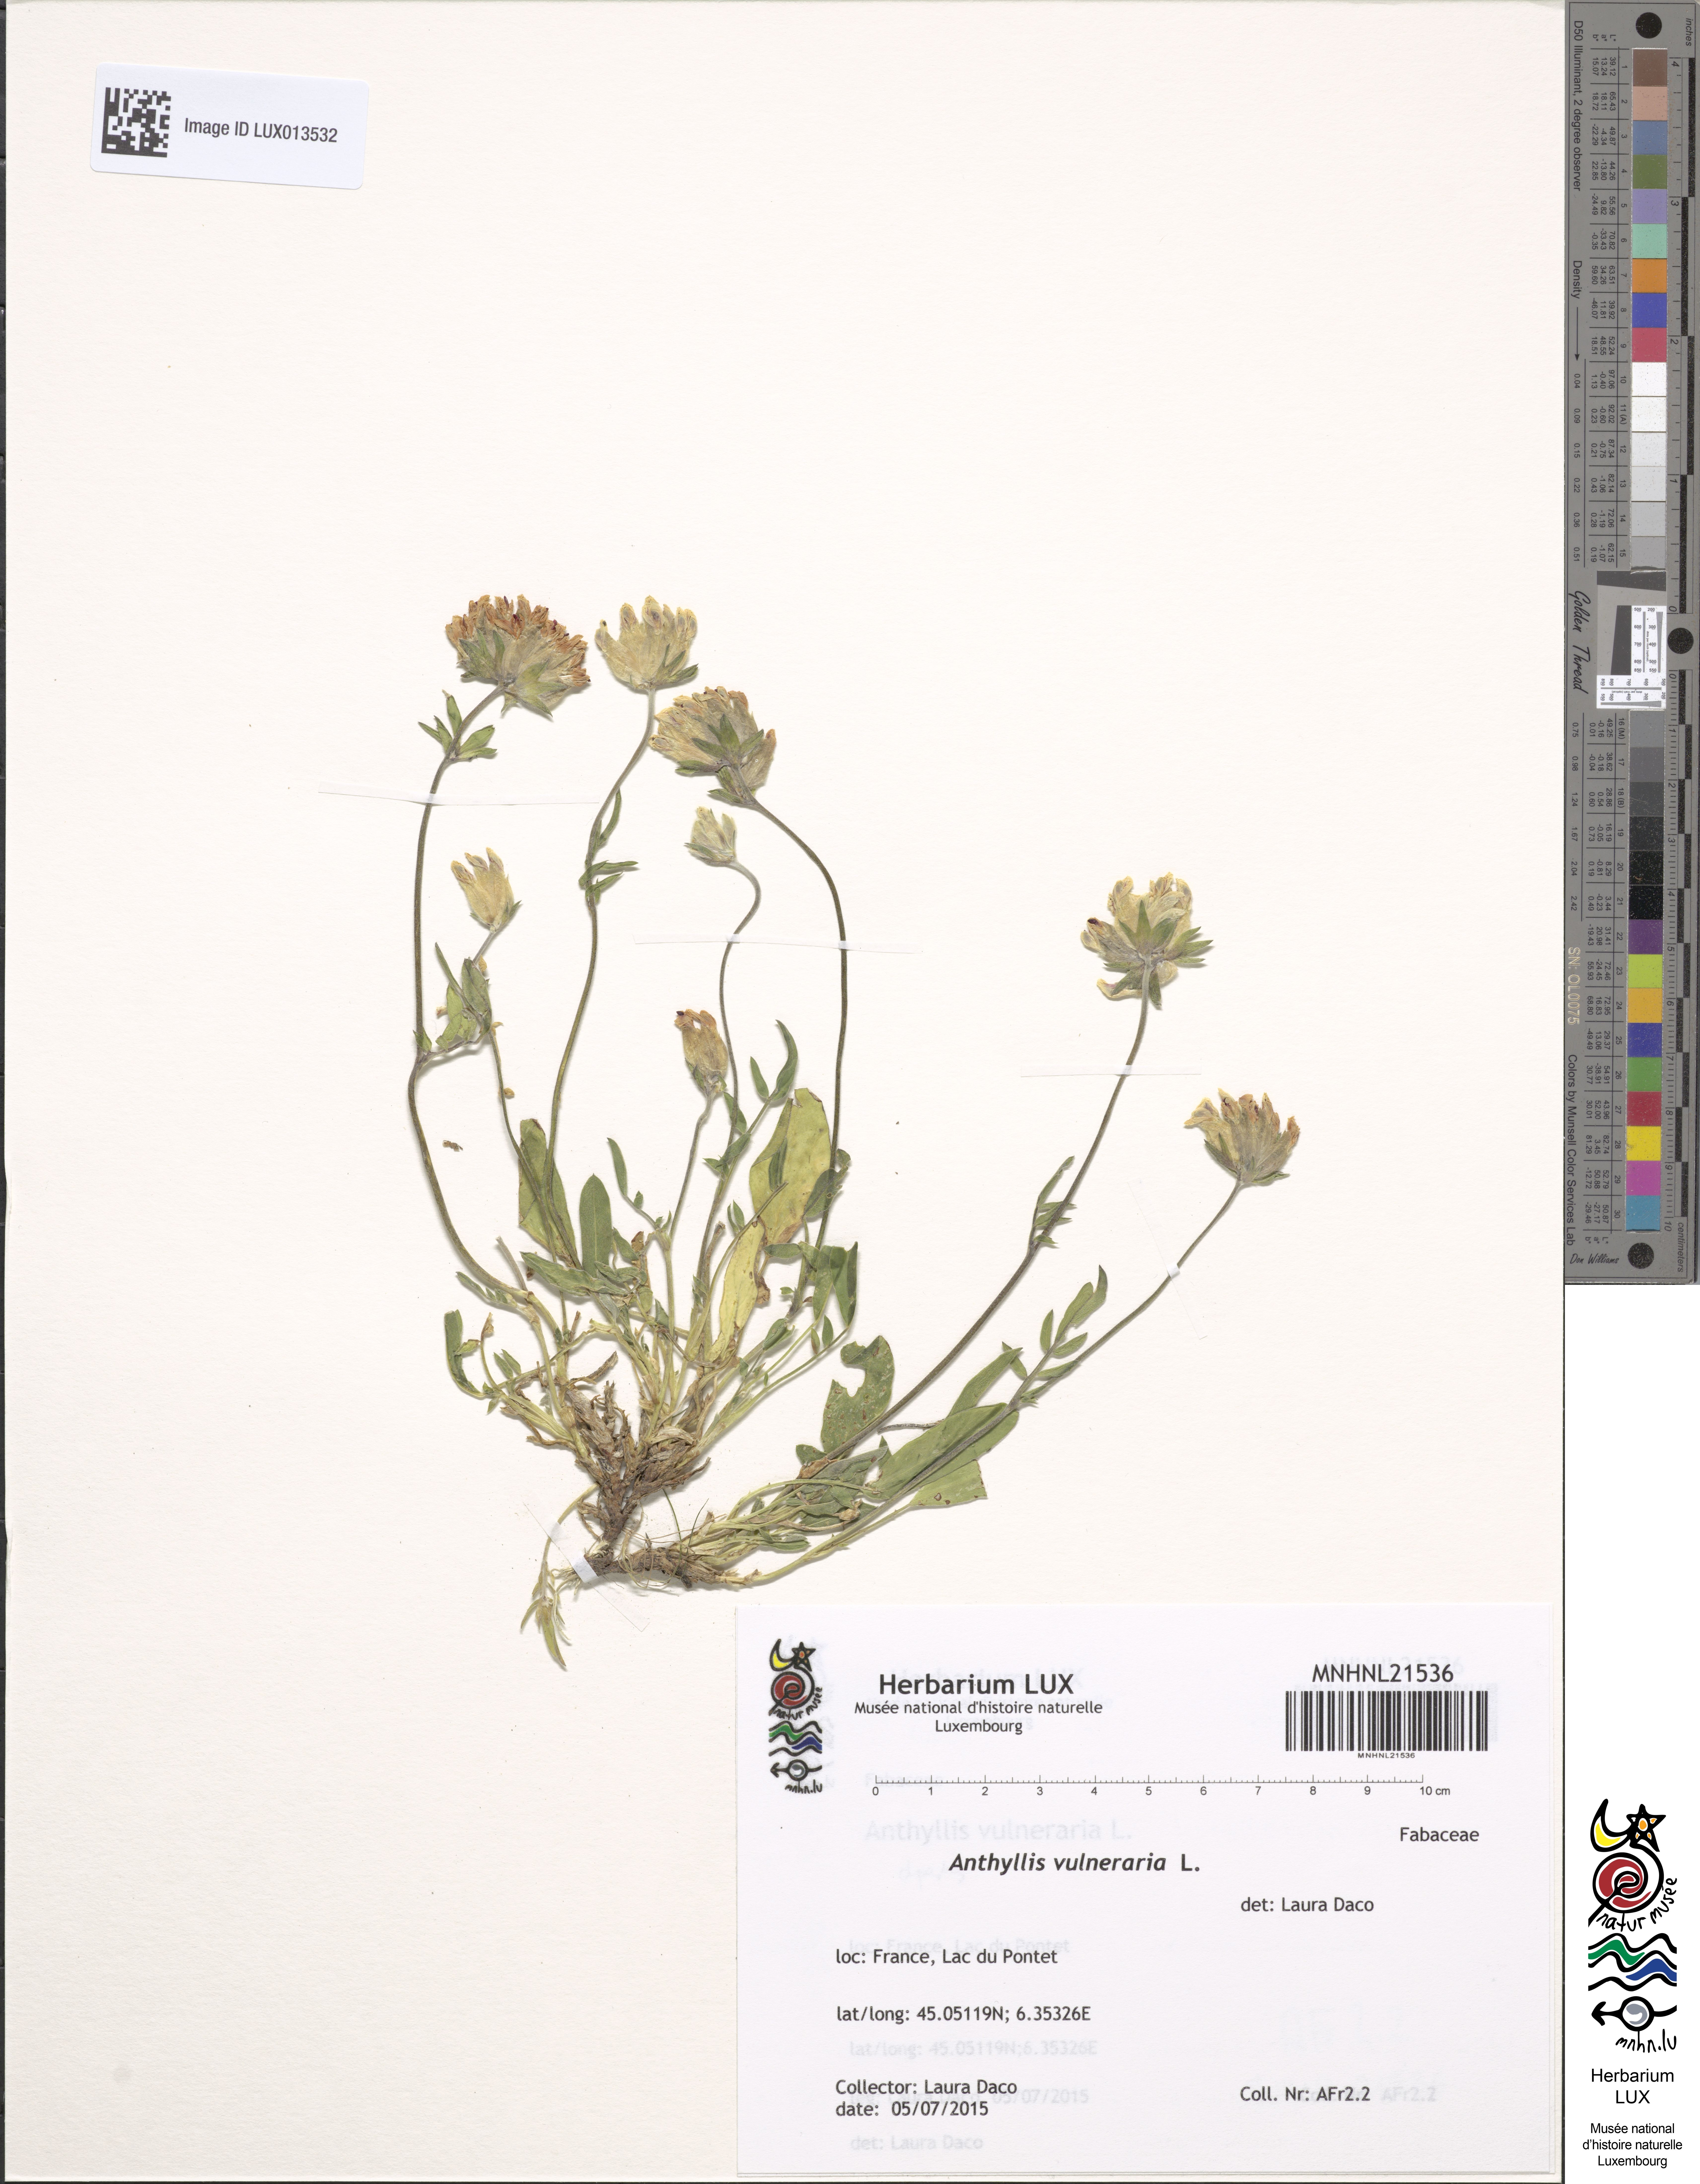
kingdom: Plantae
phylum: Tracheophyta
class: Magnoliopsida
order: Fabales
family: Fabaceae
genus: Anthyllis
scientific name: Anthyllis vulneraria
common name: Kidney vetch
